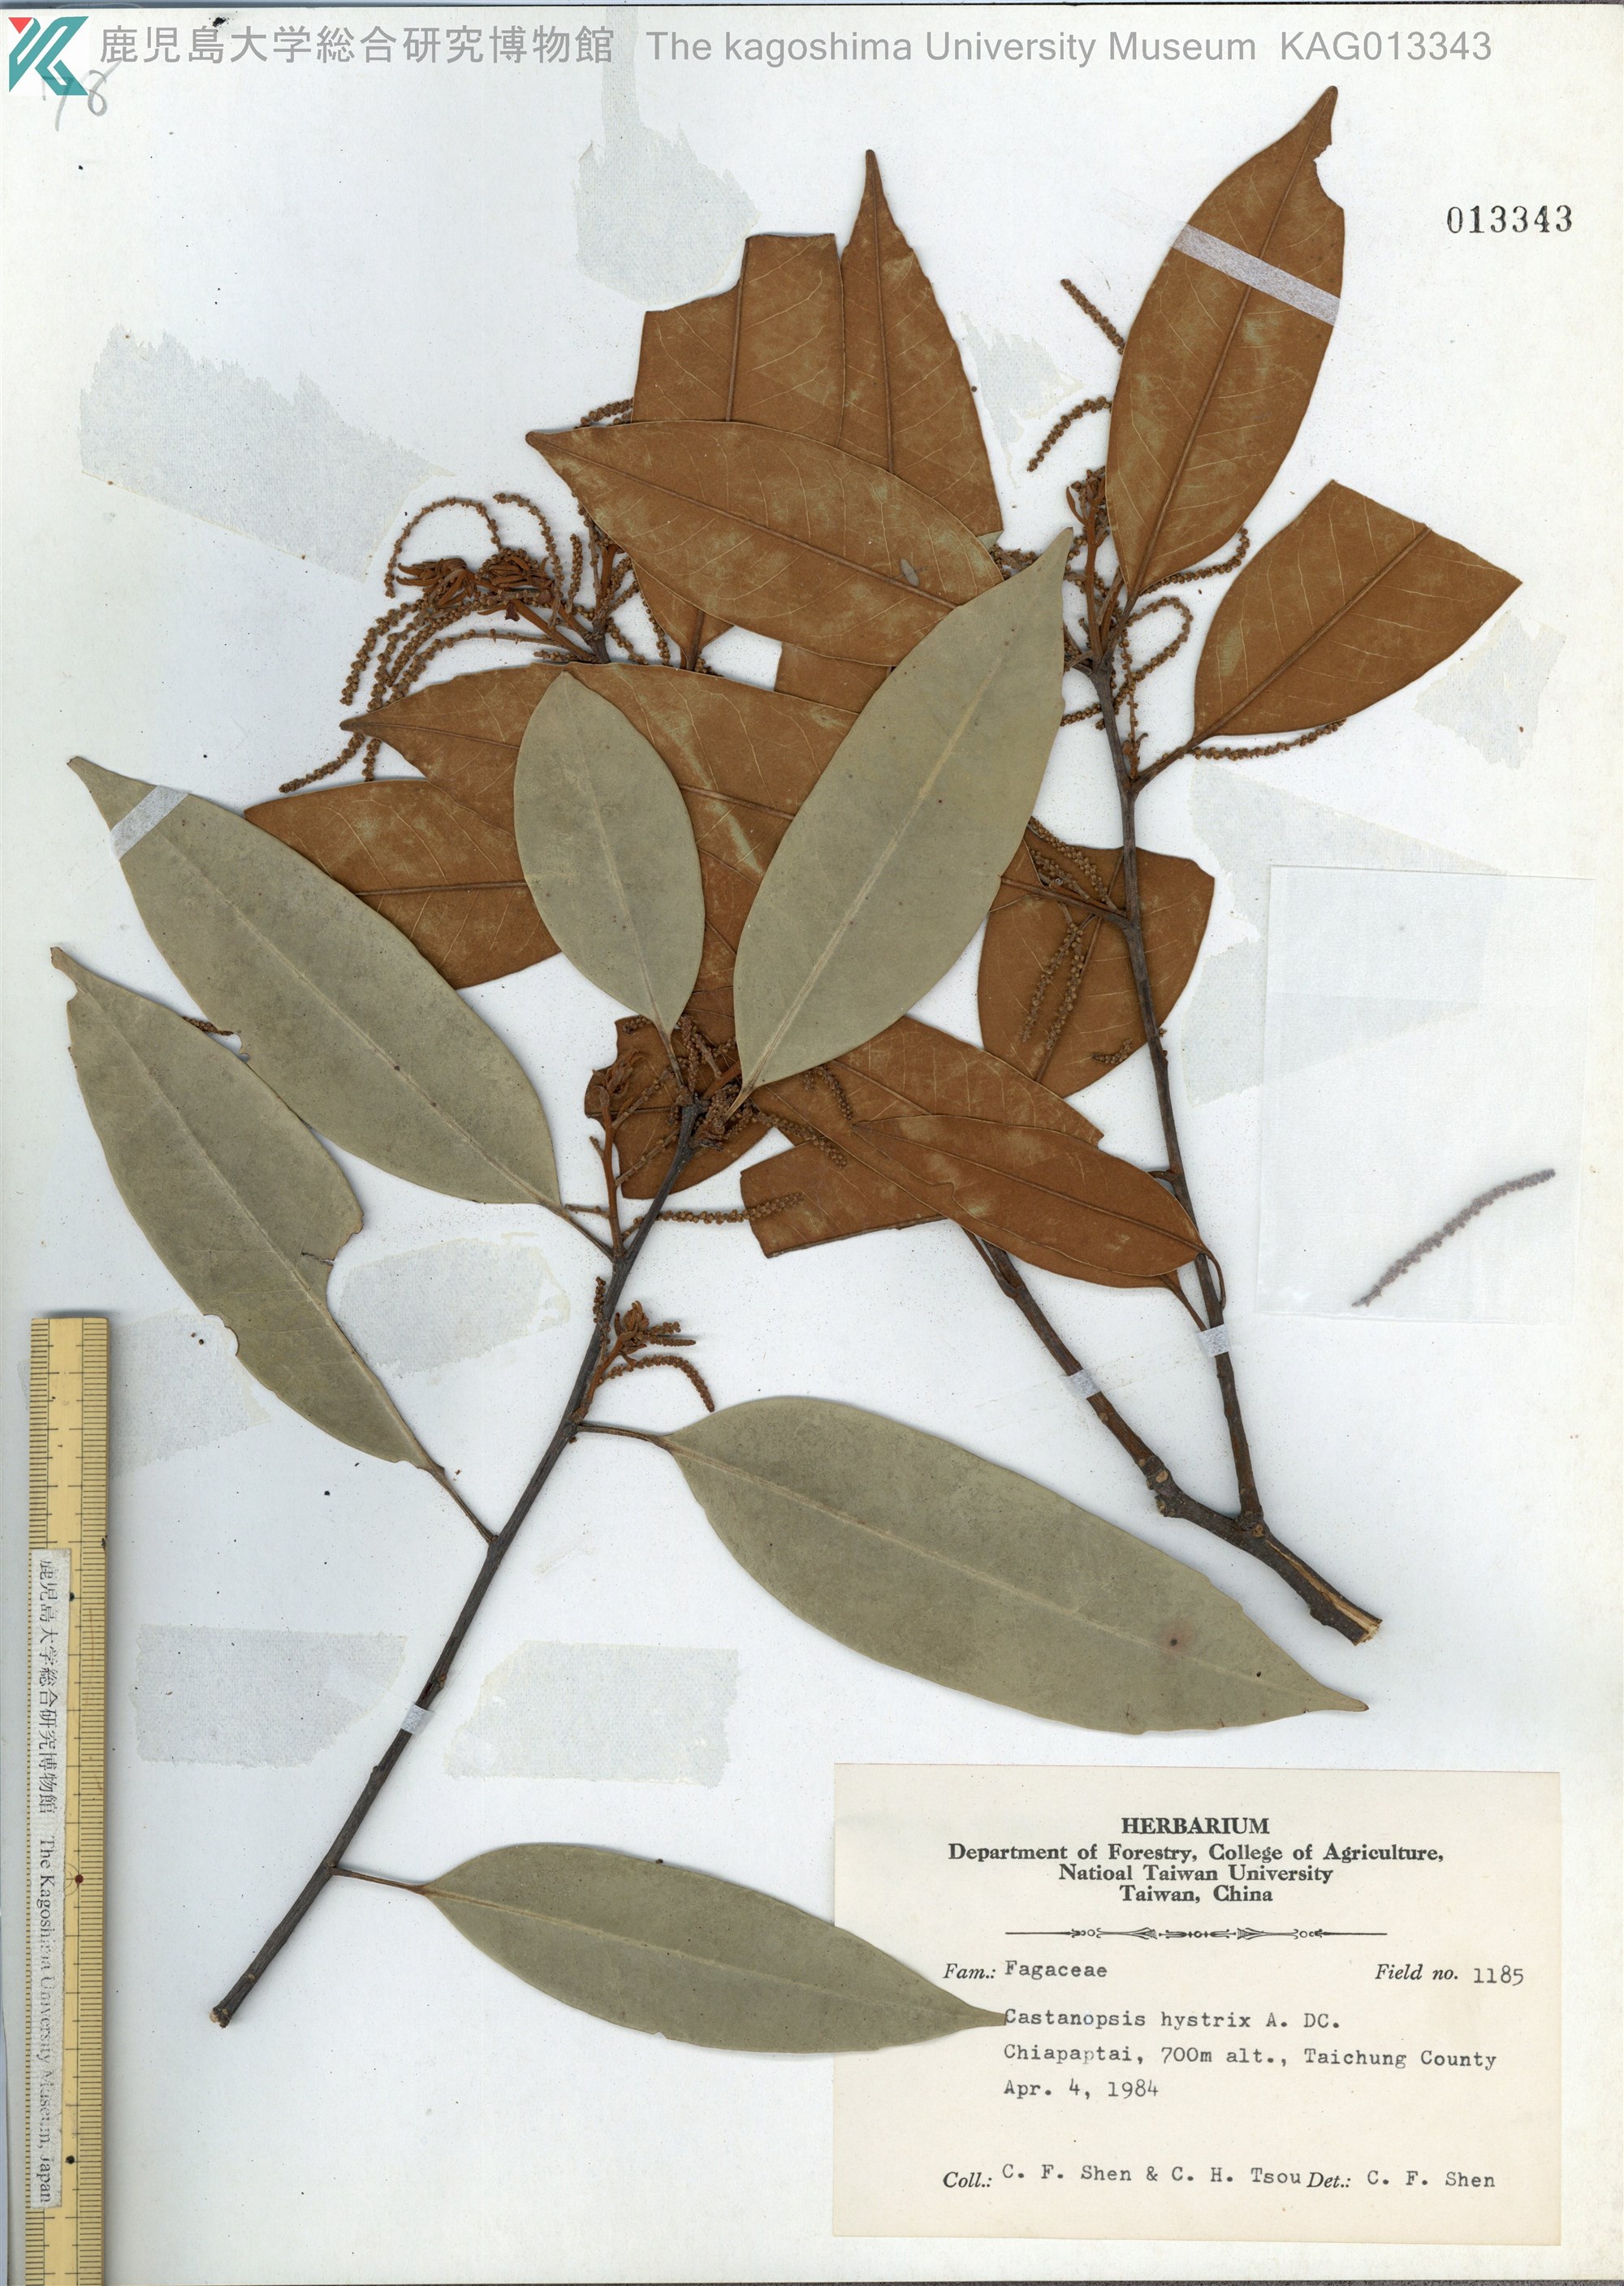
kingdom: Plantae
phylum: Tracheophyta
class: Magnoliopsida
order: Fagales
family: Fagaceae
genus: Castanopsis
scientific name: Castanopsis hystrix
